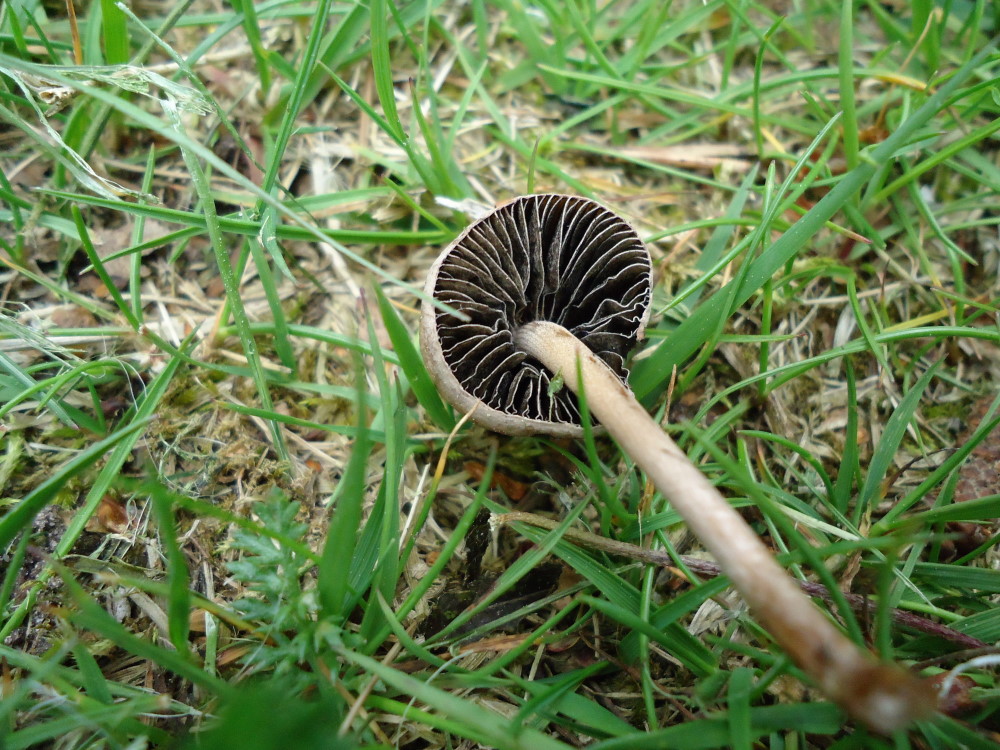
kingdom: Fungi
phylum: Basidiomycota
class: Agaricomycetes
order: Agaricales
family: Bolbitiaceae
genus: Panaeolus
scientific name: Panaeolus fimicola
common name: tidlig glanshat
